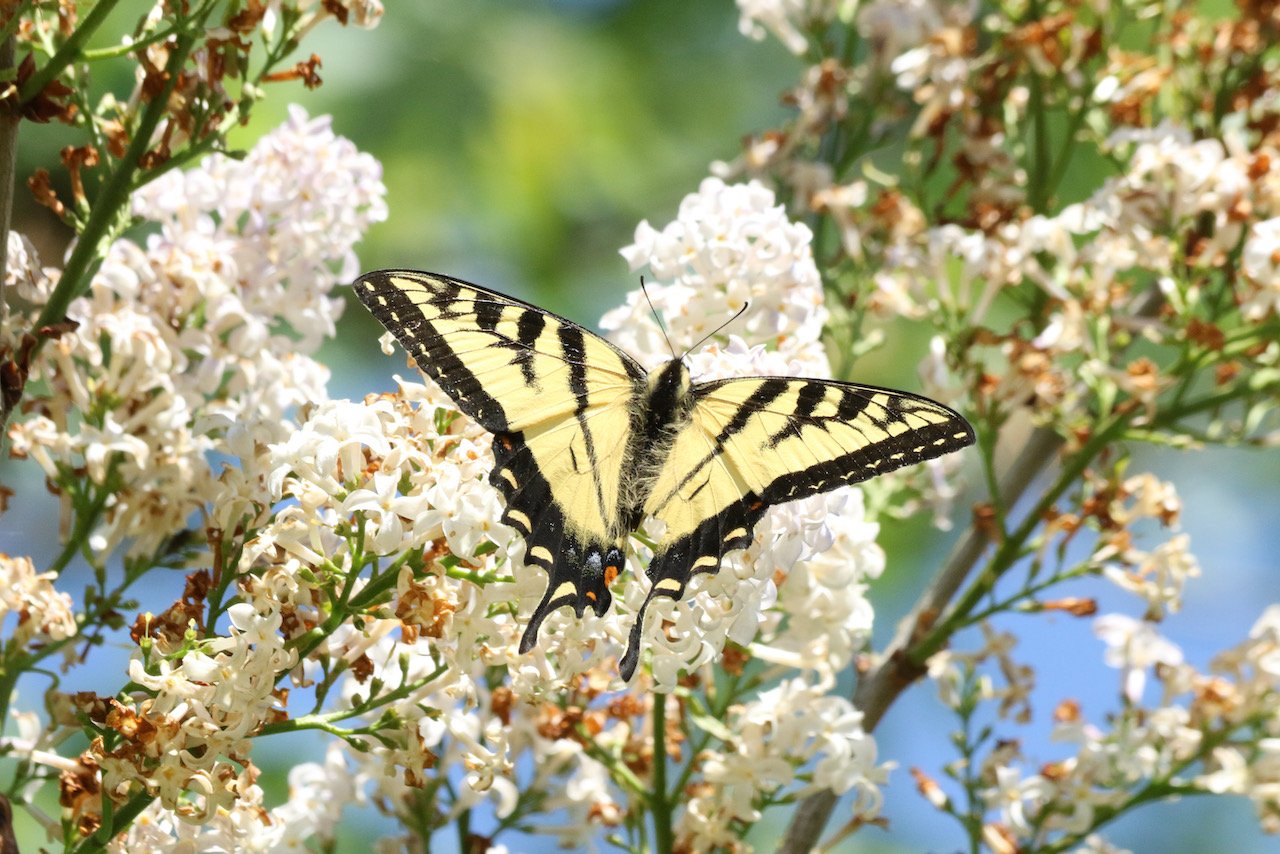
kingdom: Animalia
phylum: Arthropoda
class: Insecta
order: Lepidoptera
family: Papilionidae
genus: Pterourus
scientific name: Pterourus canadensis
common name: Canadian Tiger Swallowtail
